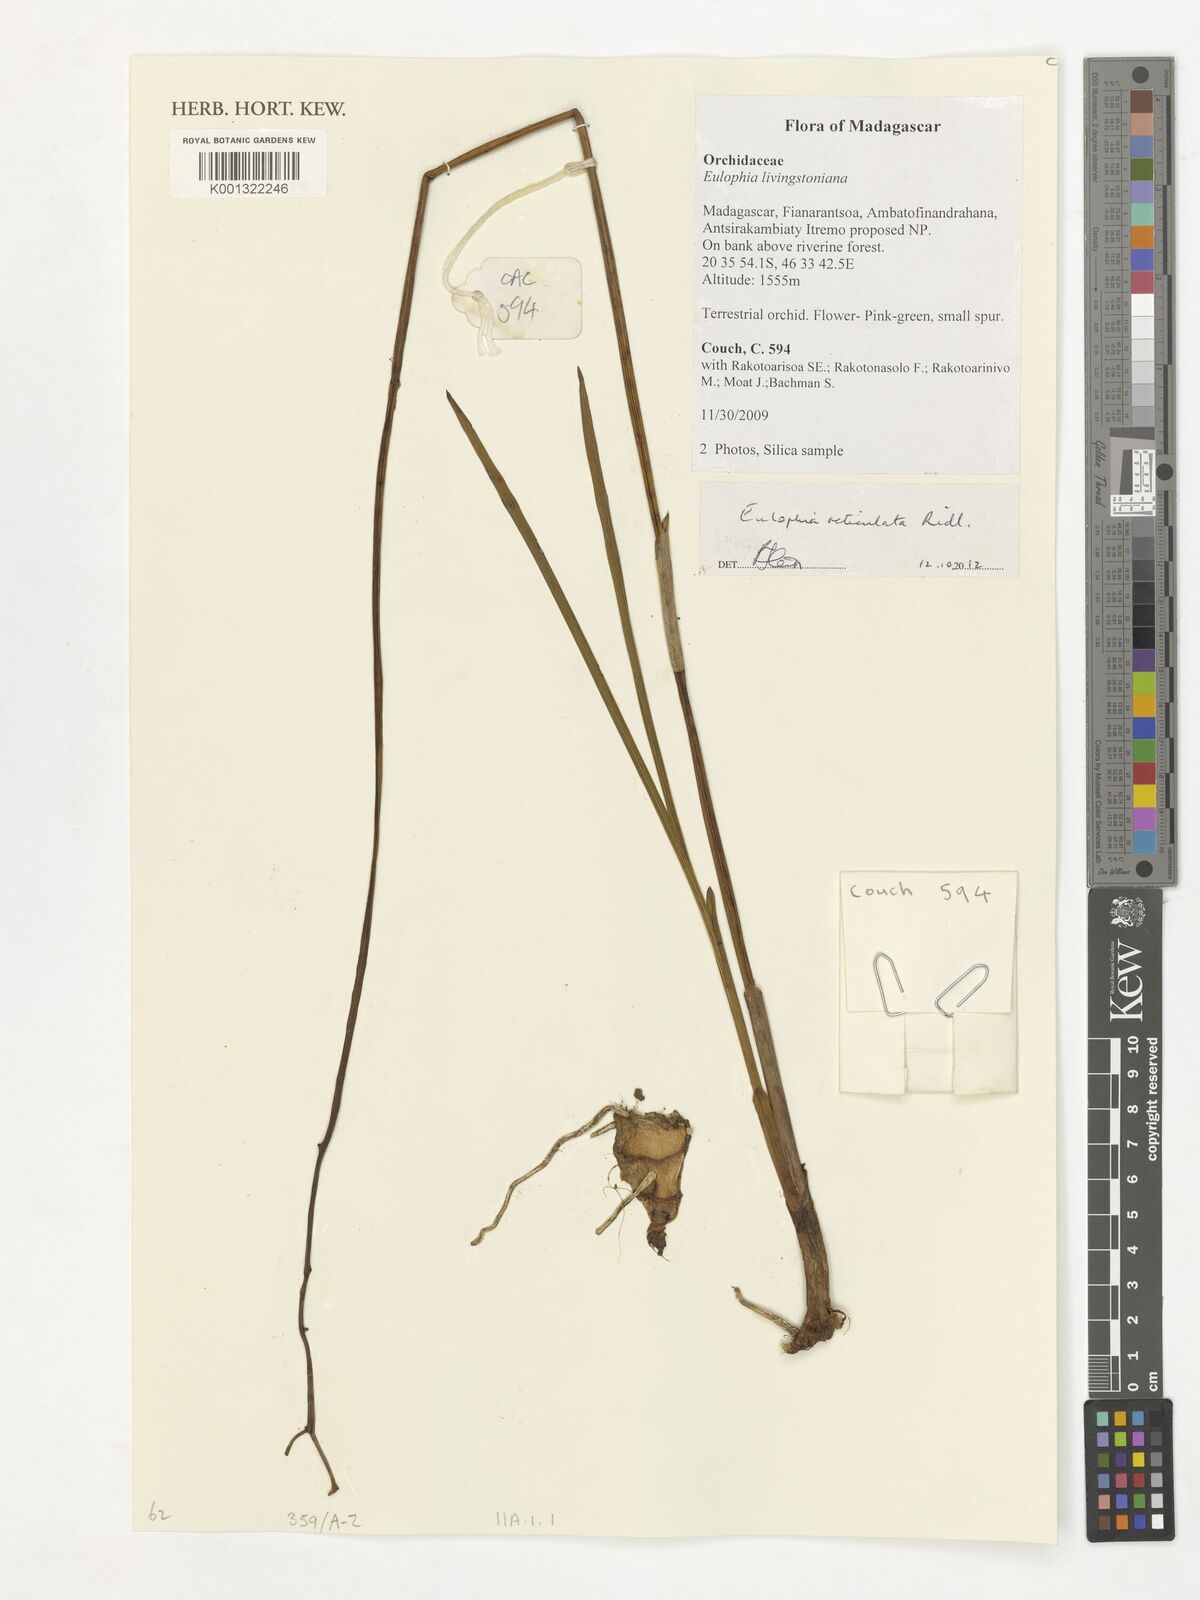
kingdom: Plantae
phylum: Tracheophyta
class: Liliopsida
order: Asparagales
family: Orchidaceae
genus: Eulophia
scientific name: Eulophia reticulata
